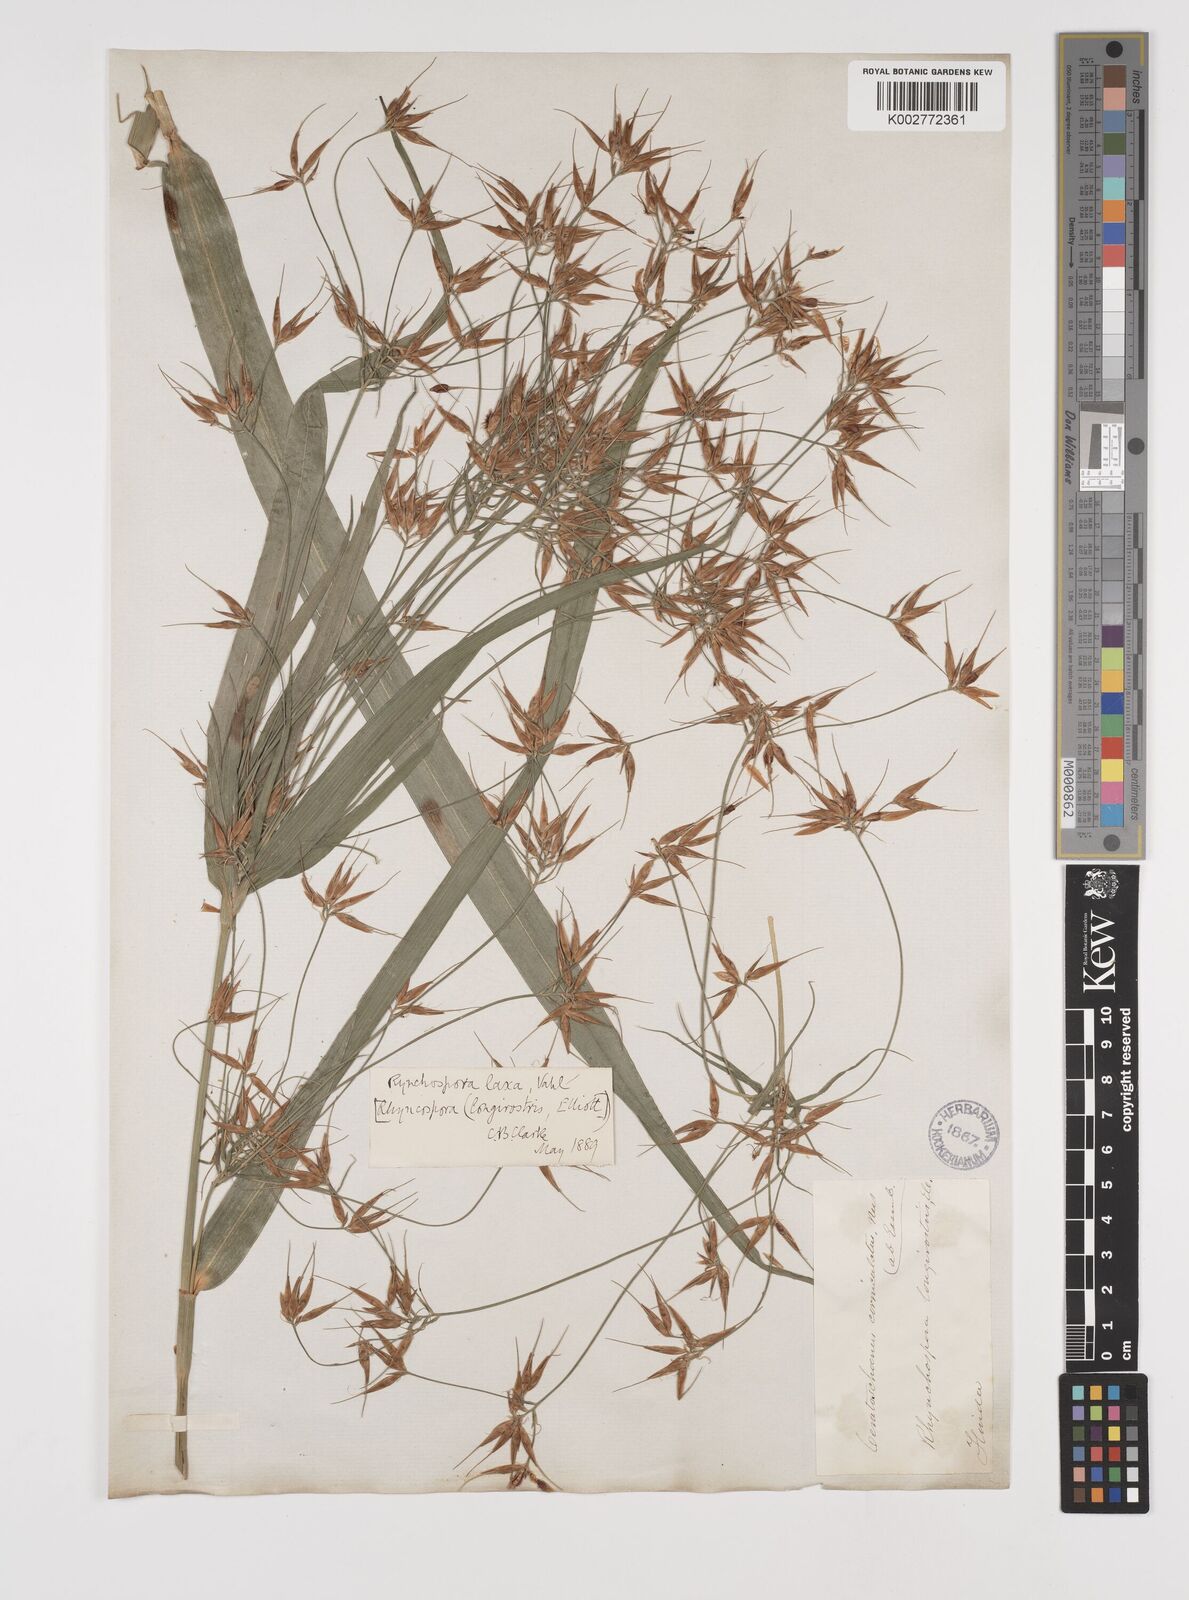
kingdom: Plantae
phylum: Tracheophyta
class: Liliopsida
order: Poales
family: Cyperaceae
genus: Rhynchospora
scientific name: Rhynchospora corniculata
